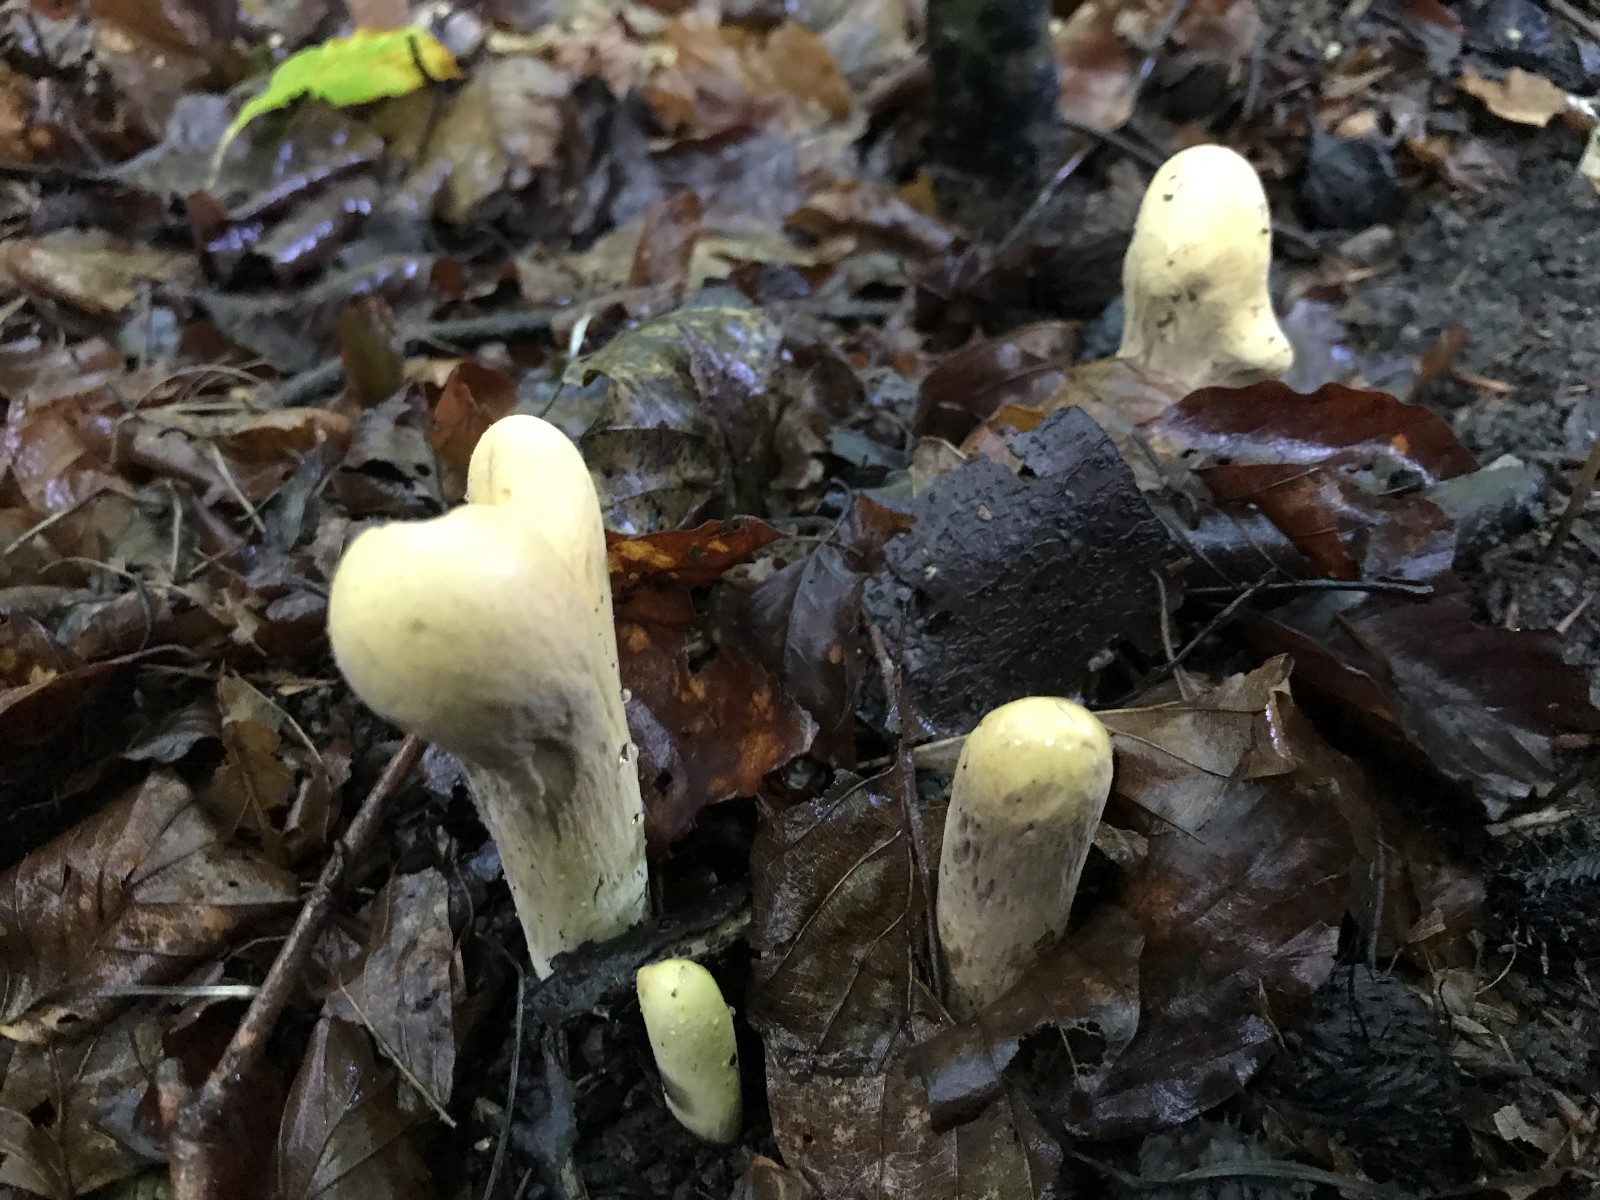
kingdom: Fungi
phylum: Basidiomycota
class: Agaricomycetes
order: Gomphales
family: Clavariadelphaceae
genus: Clavariadelphus
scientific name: Clavariadelphus pistillaris
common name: herkules-kæmpekølle
